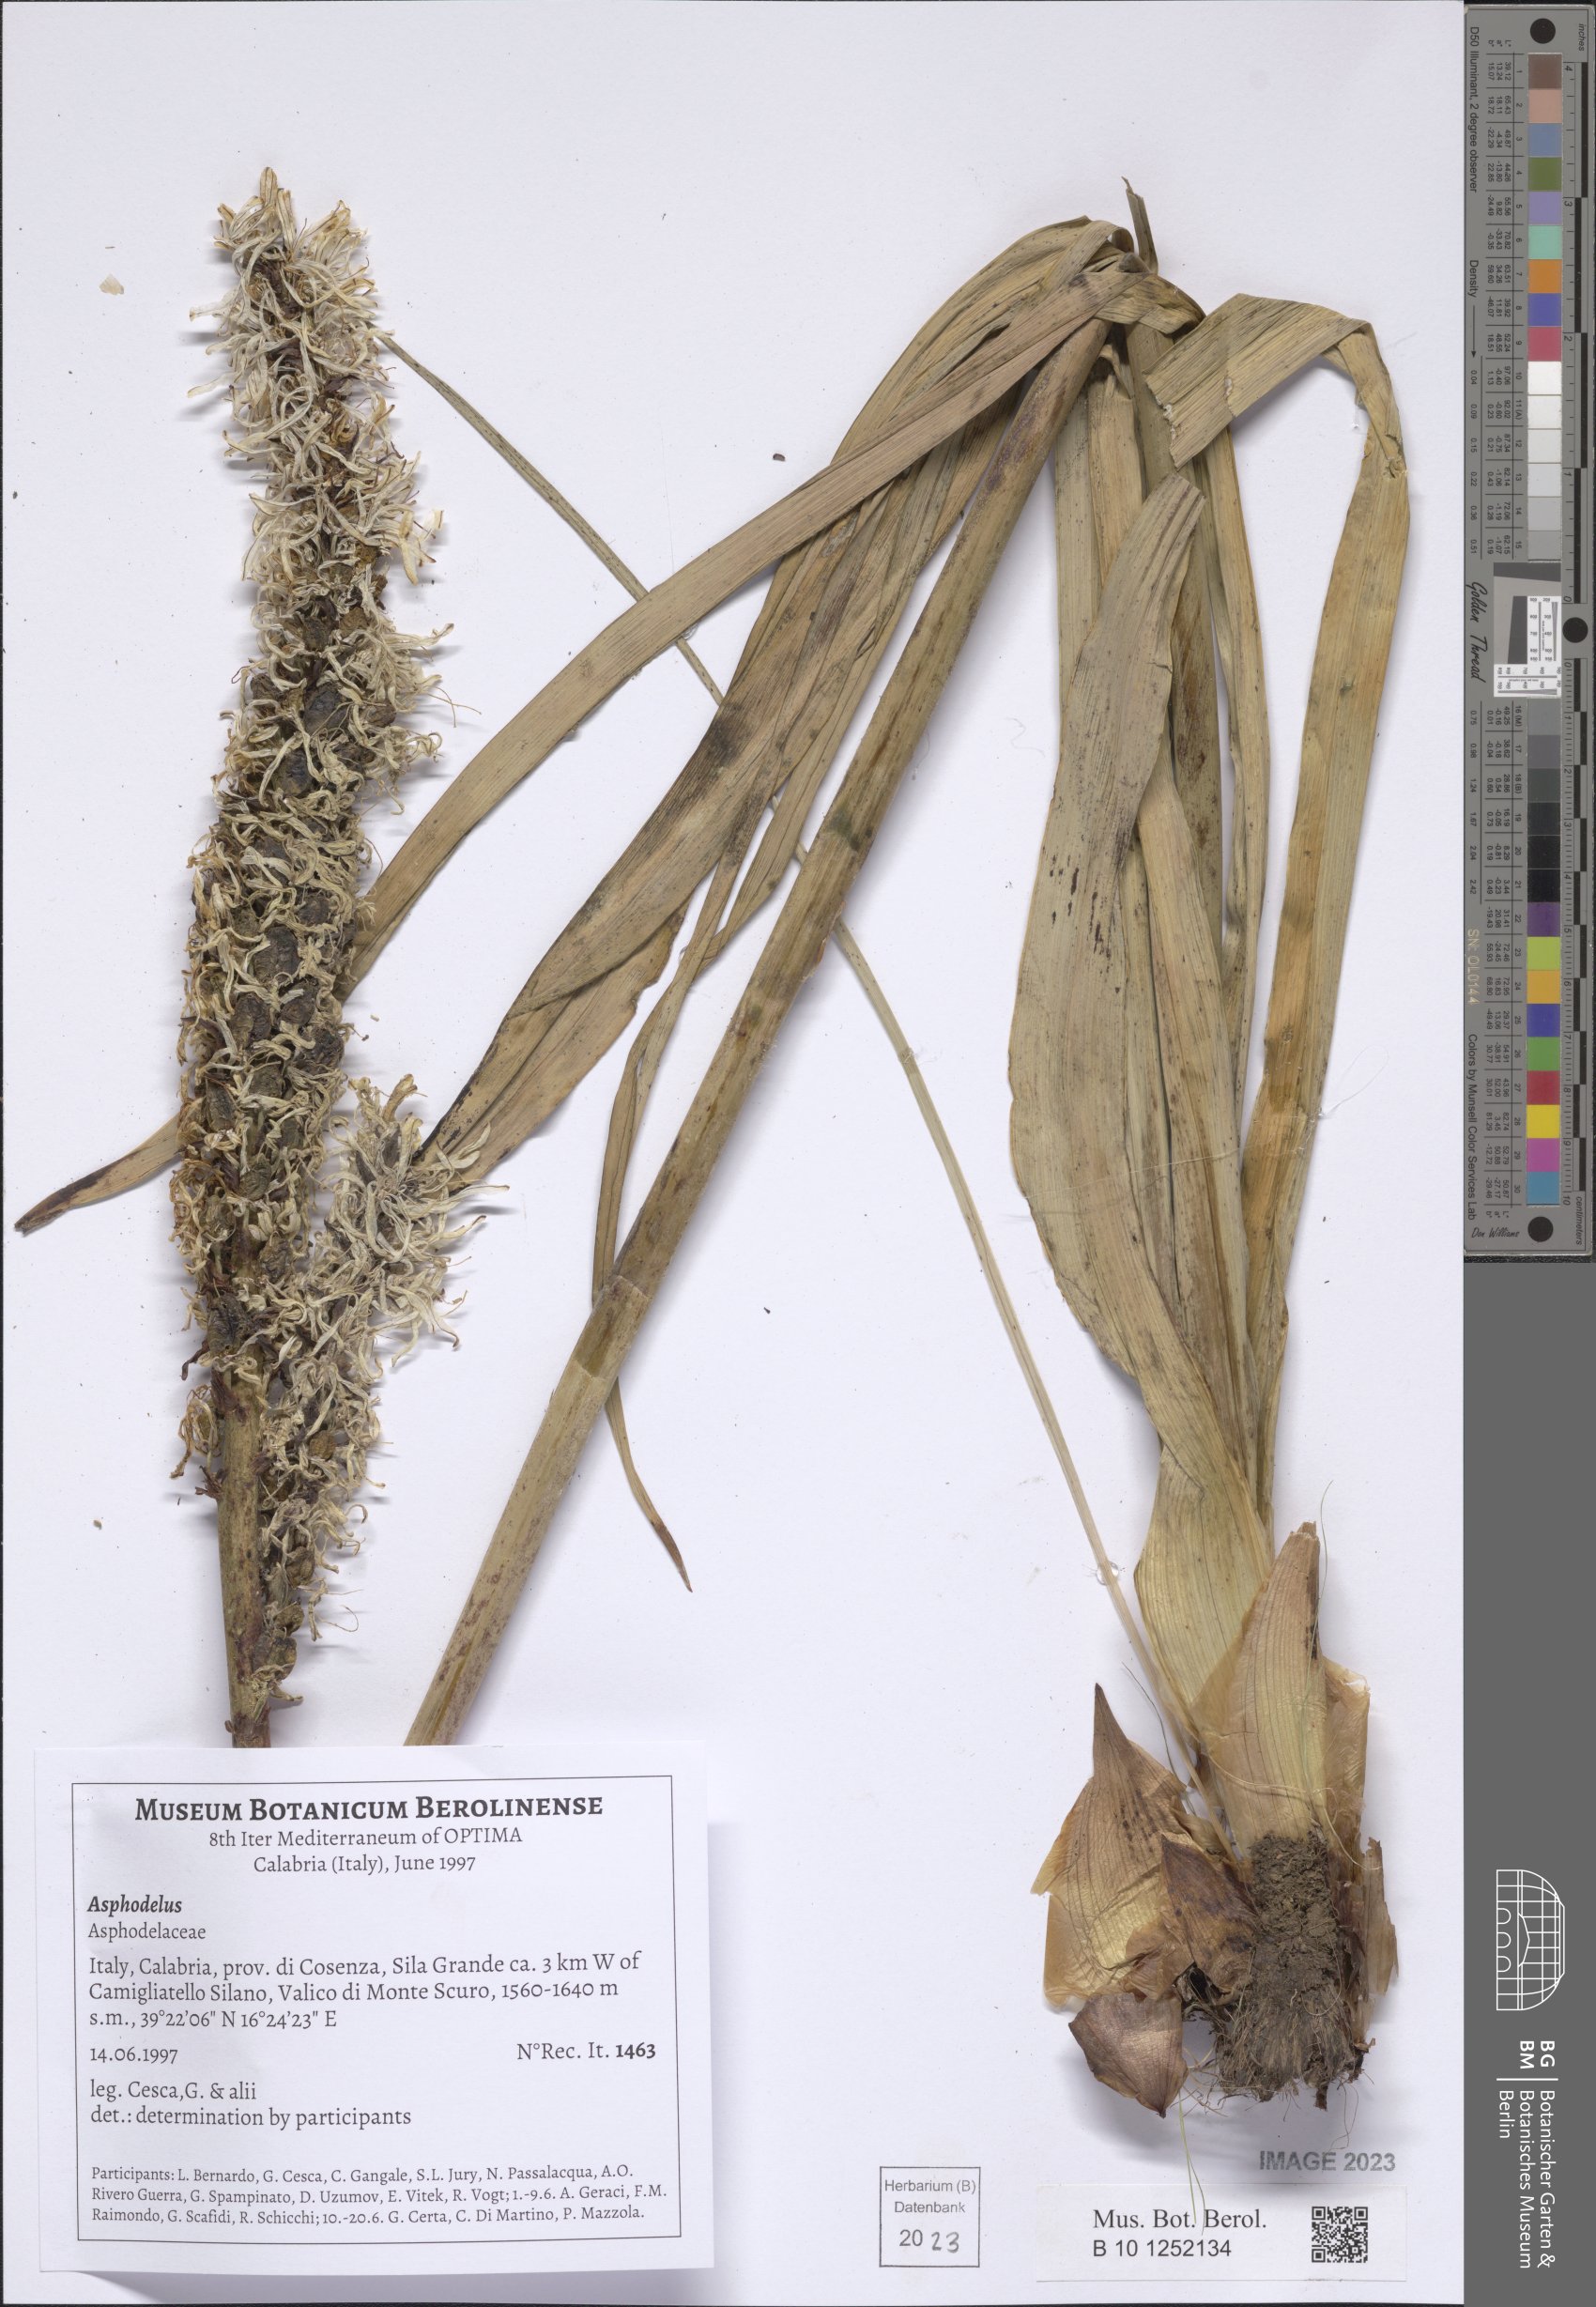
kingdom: Plantae
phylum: Tracheophyta
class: Liliopsida
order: Asparagales
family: Asphodelaceae
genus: Asphodelus
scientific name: Asphodelus
